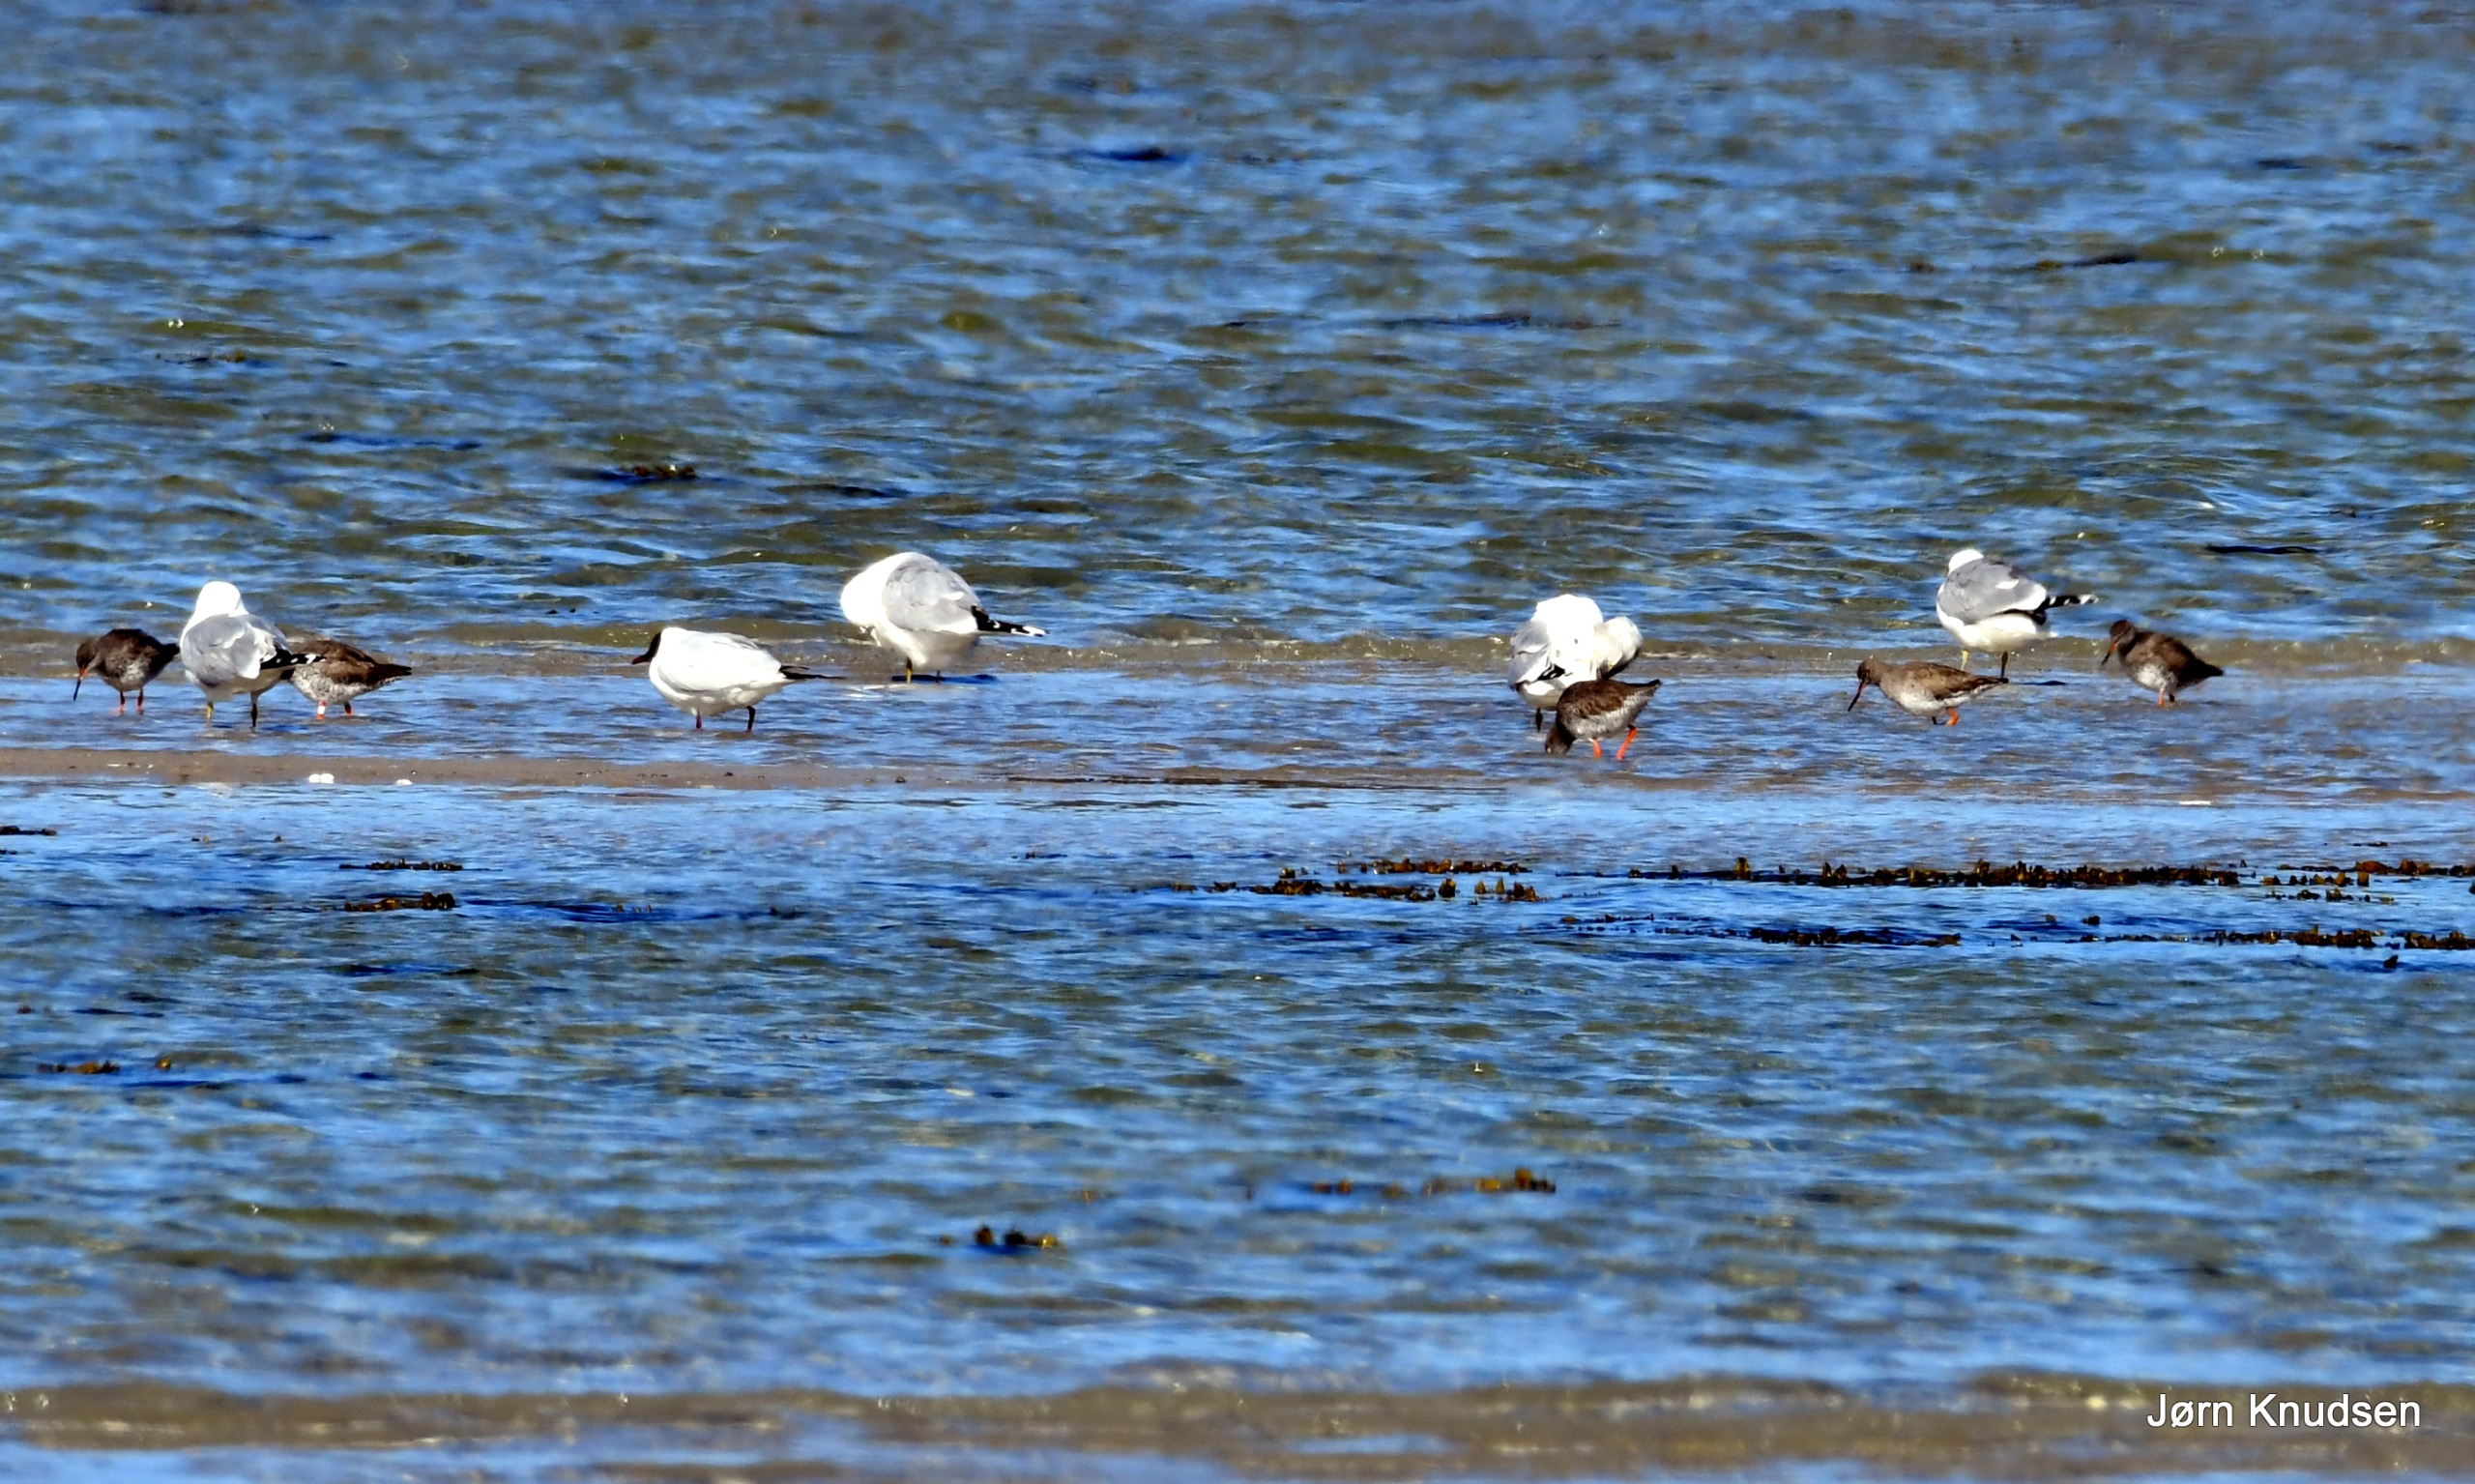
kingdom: Animalia
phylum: Chordata
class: Aves
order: Charadriiformes
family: Scolopacidae
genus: Tringa
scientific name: Tringa totanus
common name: Rødben
